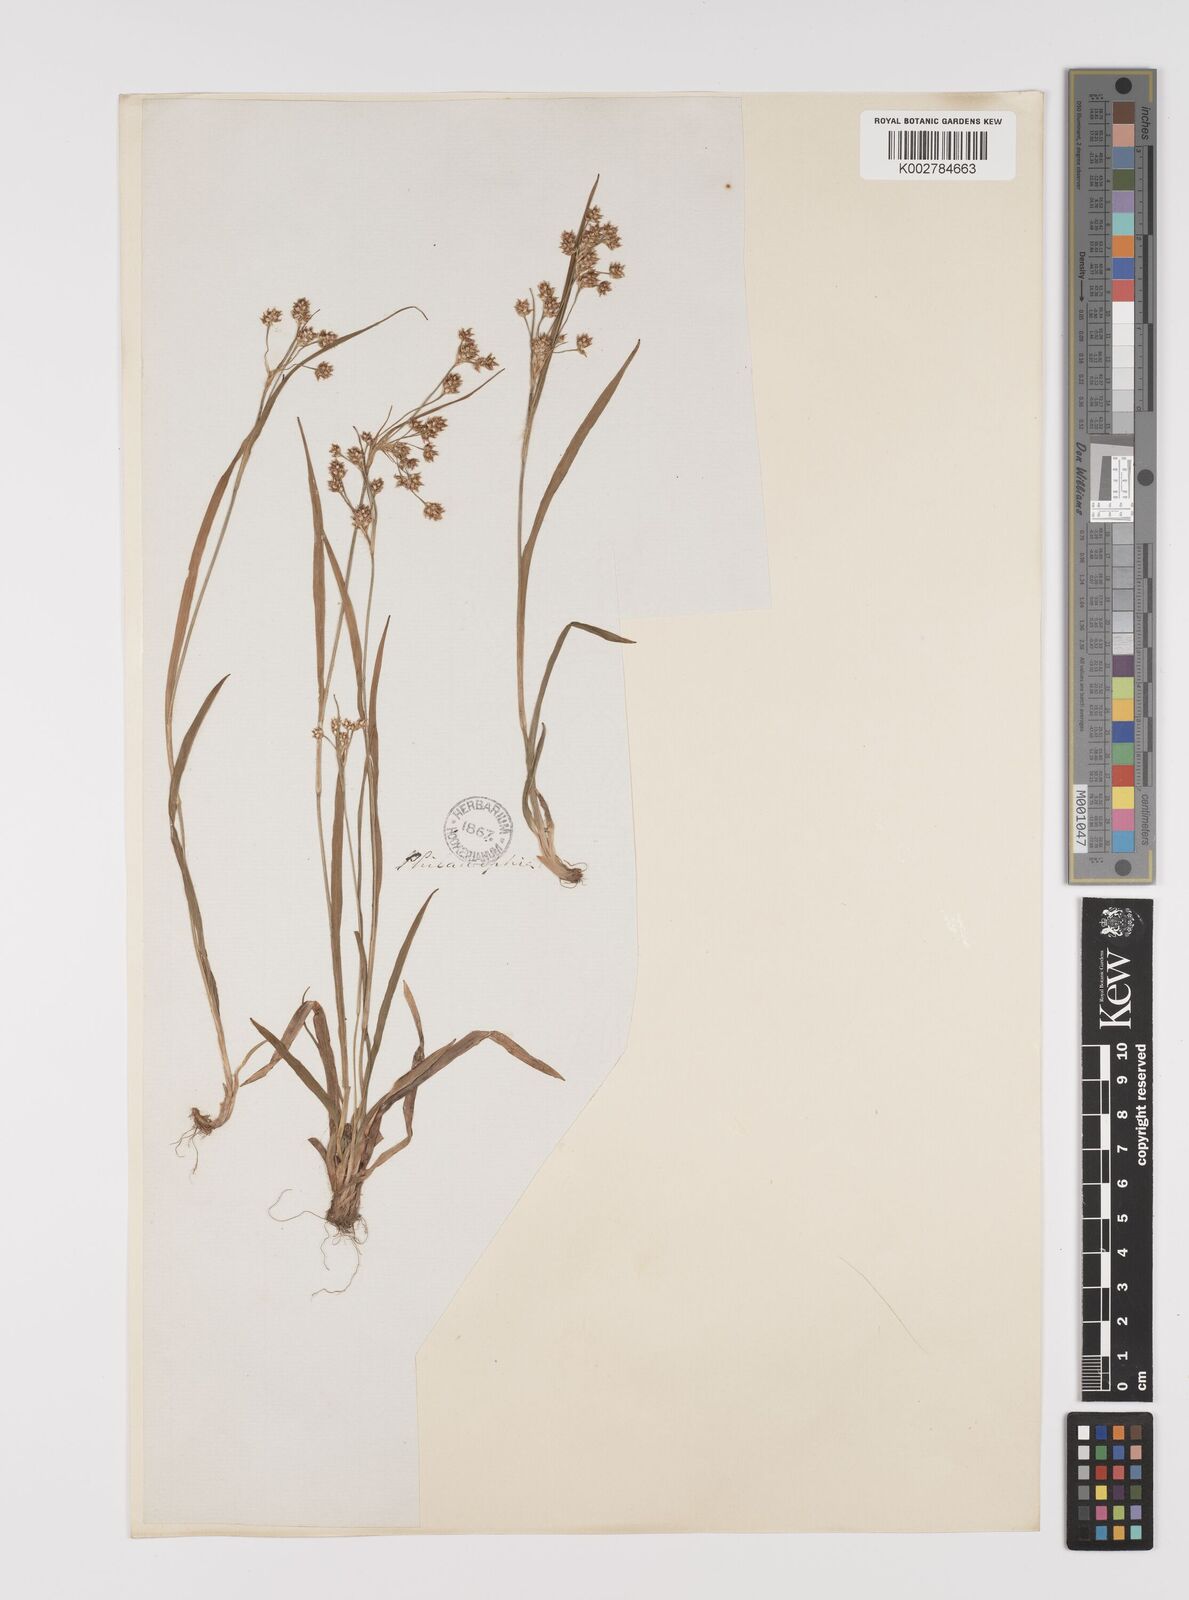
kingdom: Plantae
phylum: Tracheophyta
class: Liliopsida
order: Poales
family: Juncaceae
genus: Luzula
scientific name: Luzula campestris
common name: Field wood-rush
